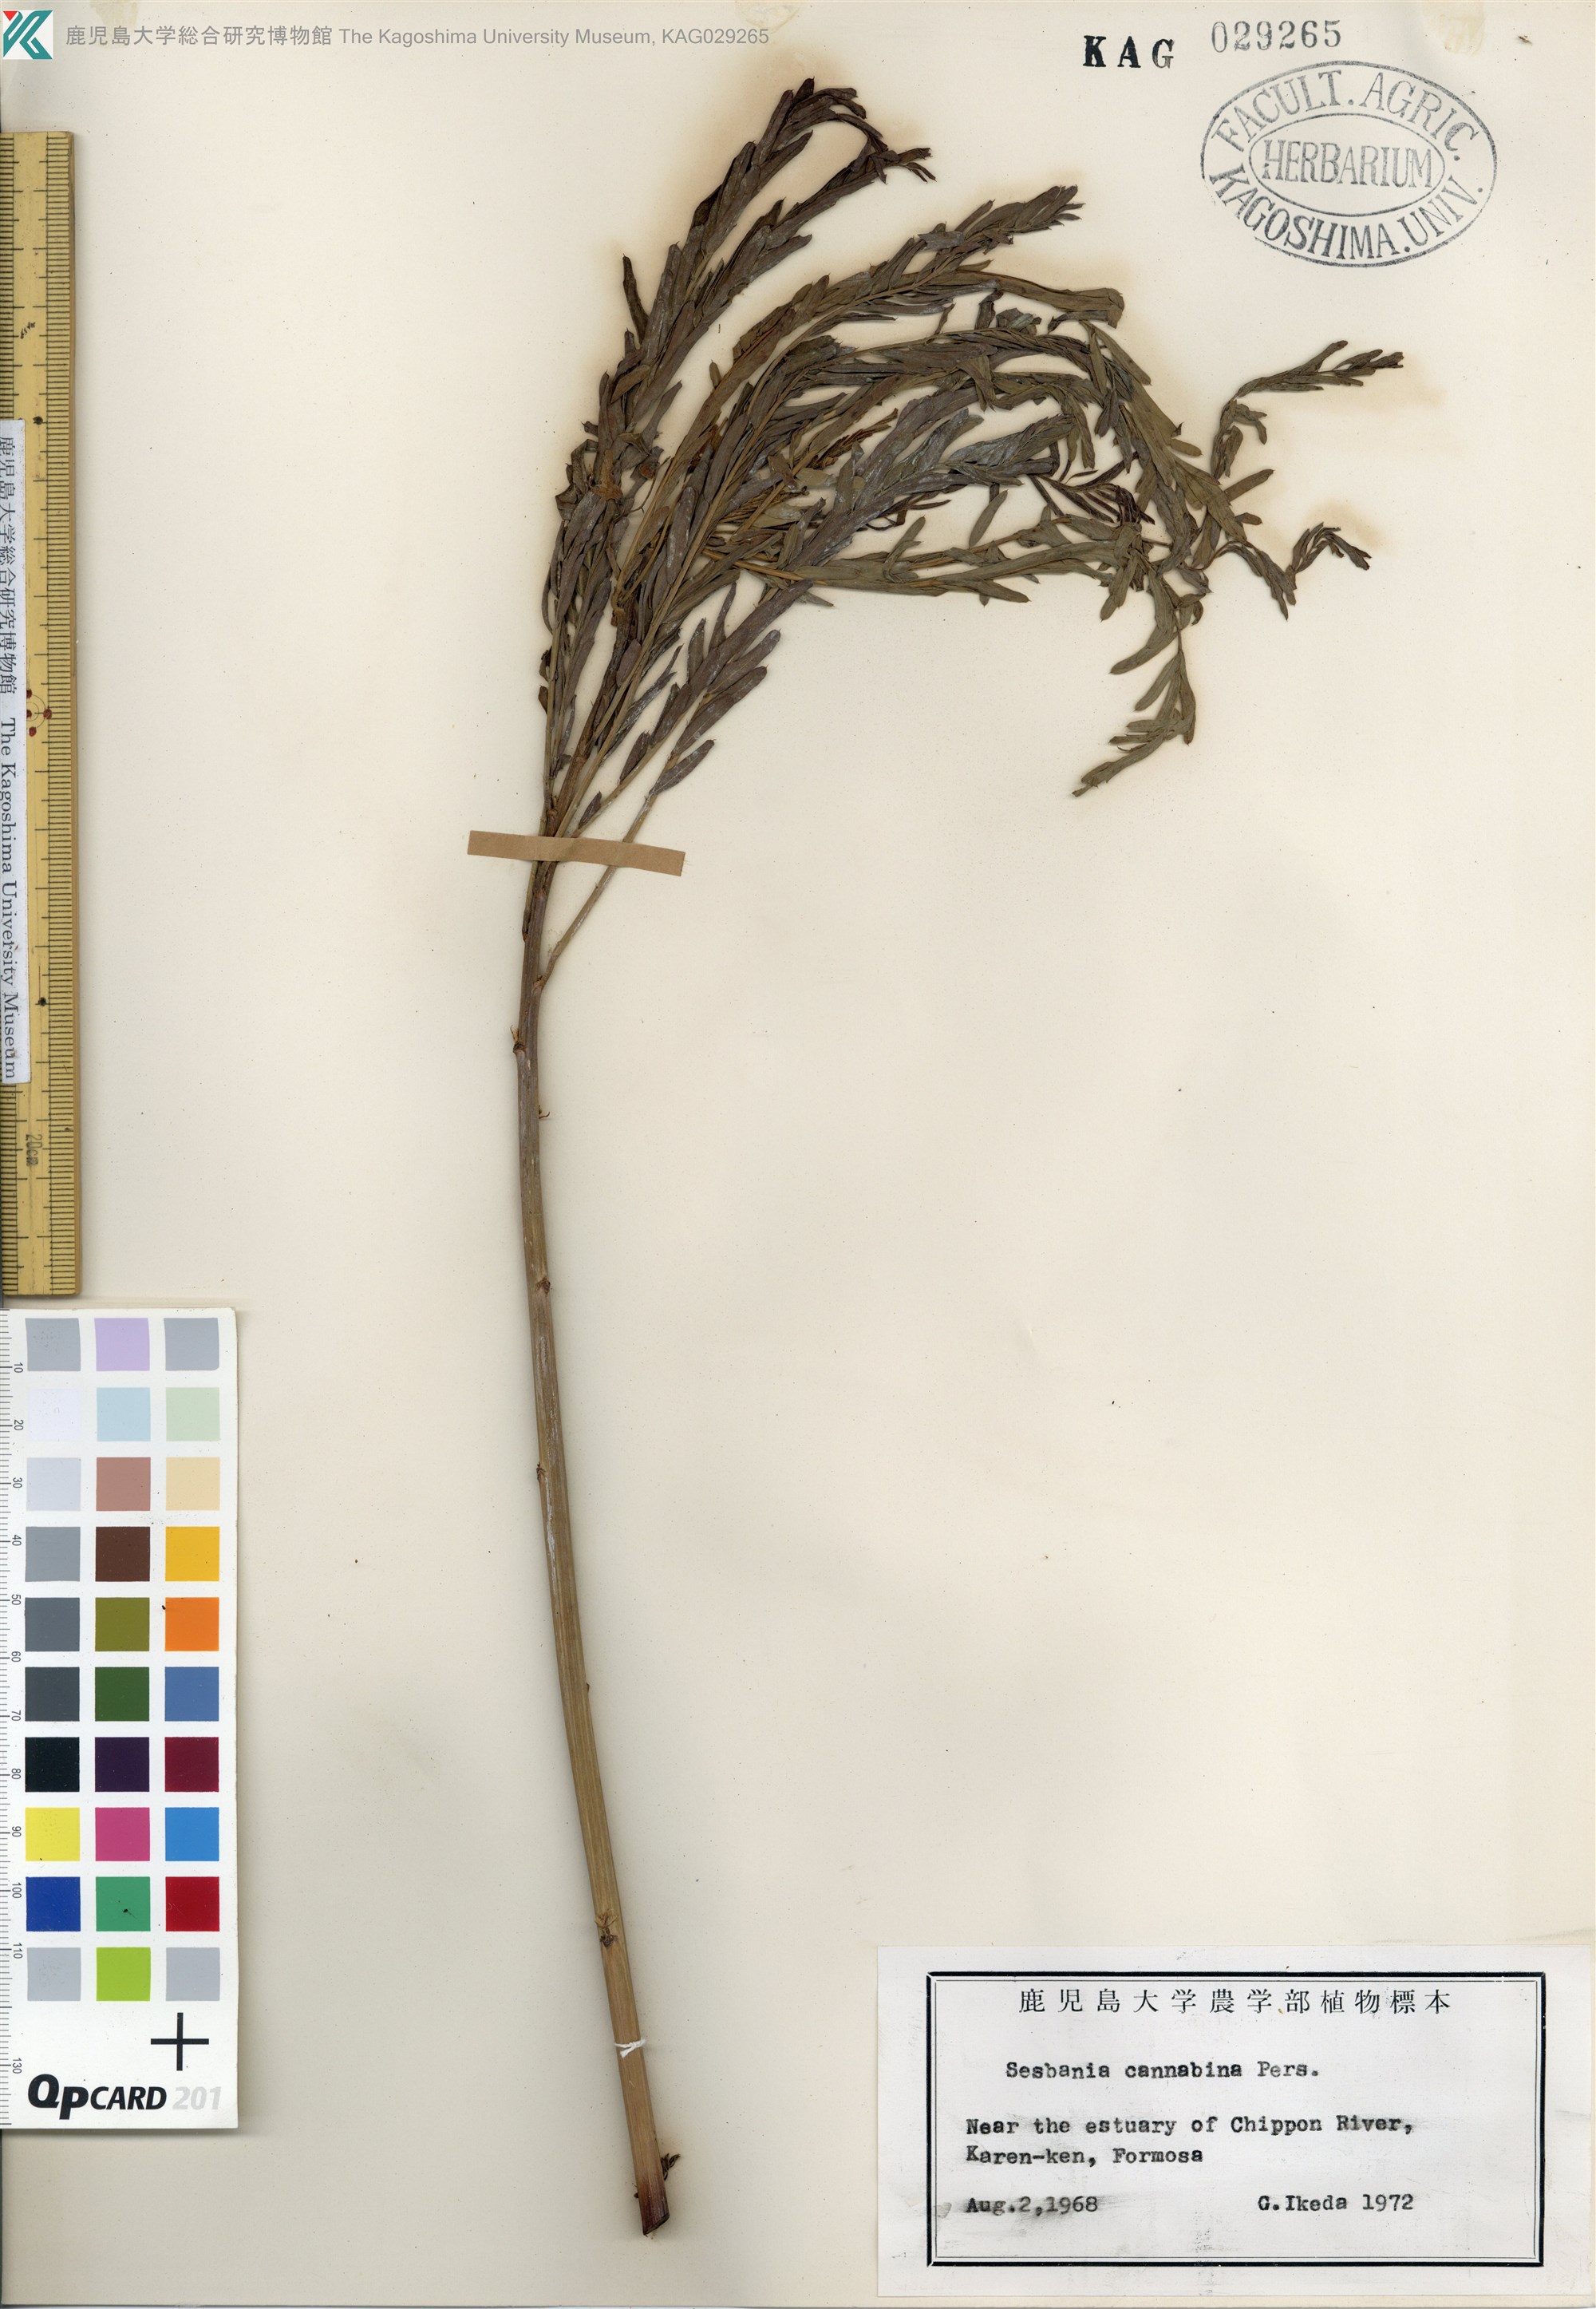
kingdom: Plantae
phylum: Tracheophyta
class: Magnoliopsida
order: Fabales
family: Fabaceae
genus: Sesbania
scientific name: Sesbania cannabina
